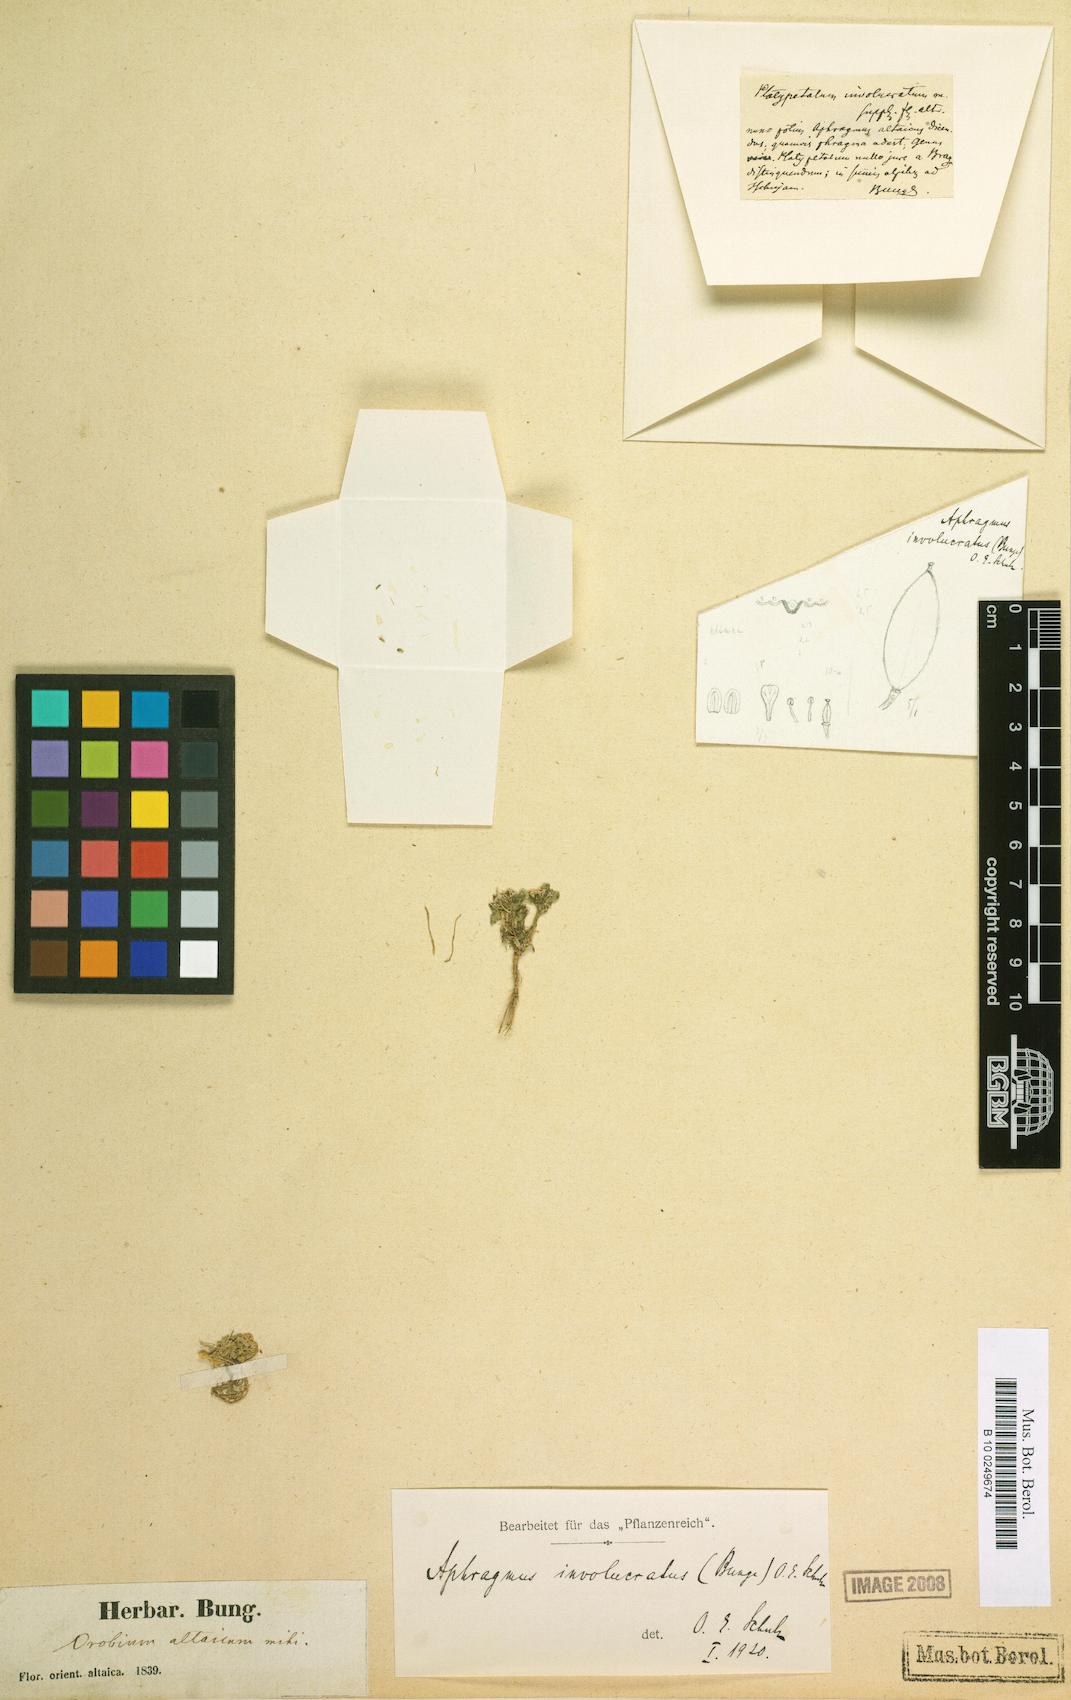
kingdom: Plantae
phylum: Tracheophyta
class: Magnoliopsida
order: Brassicales
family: Brassicaceae
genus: Aphragmus
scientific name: Aphragmus involucratus
